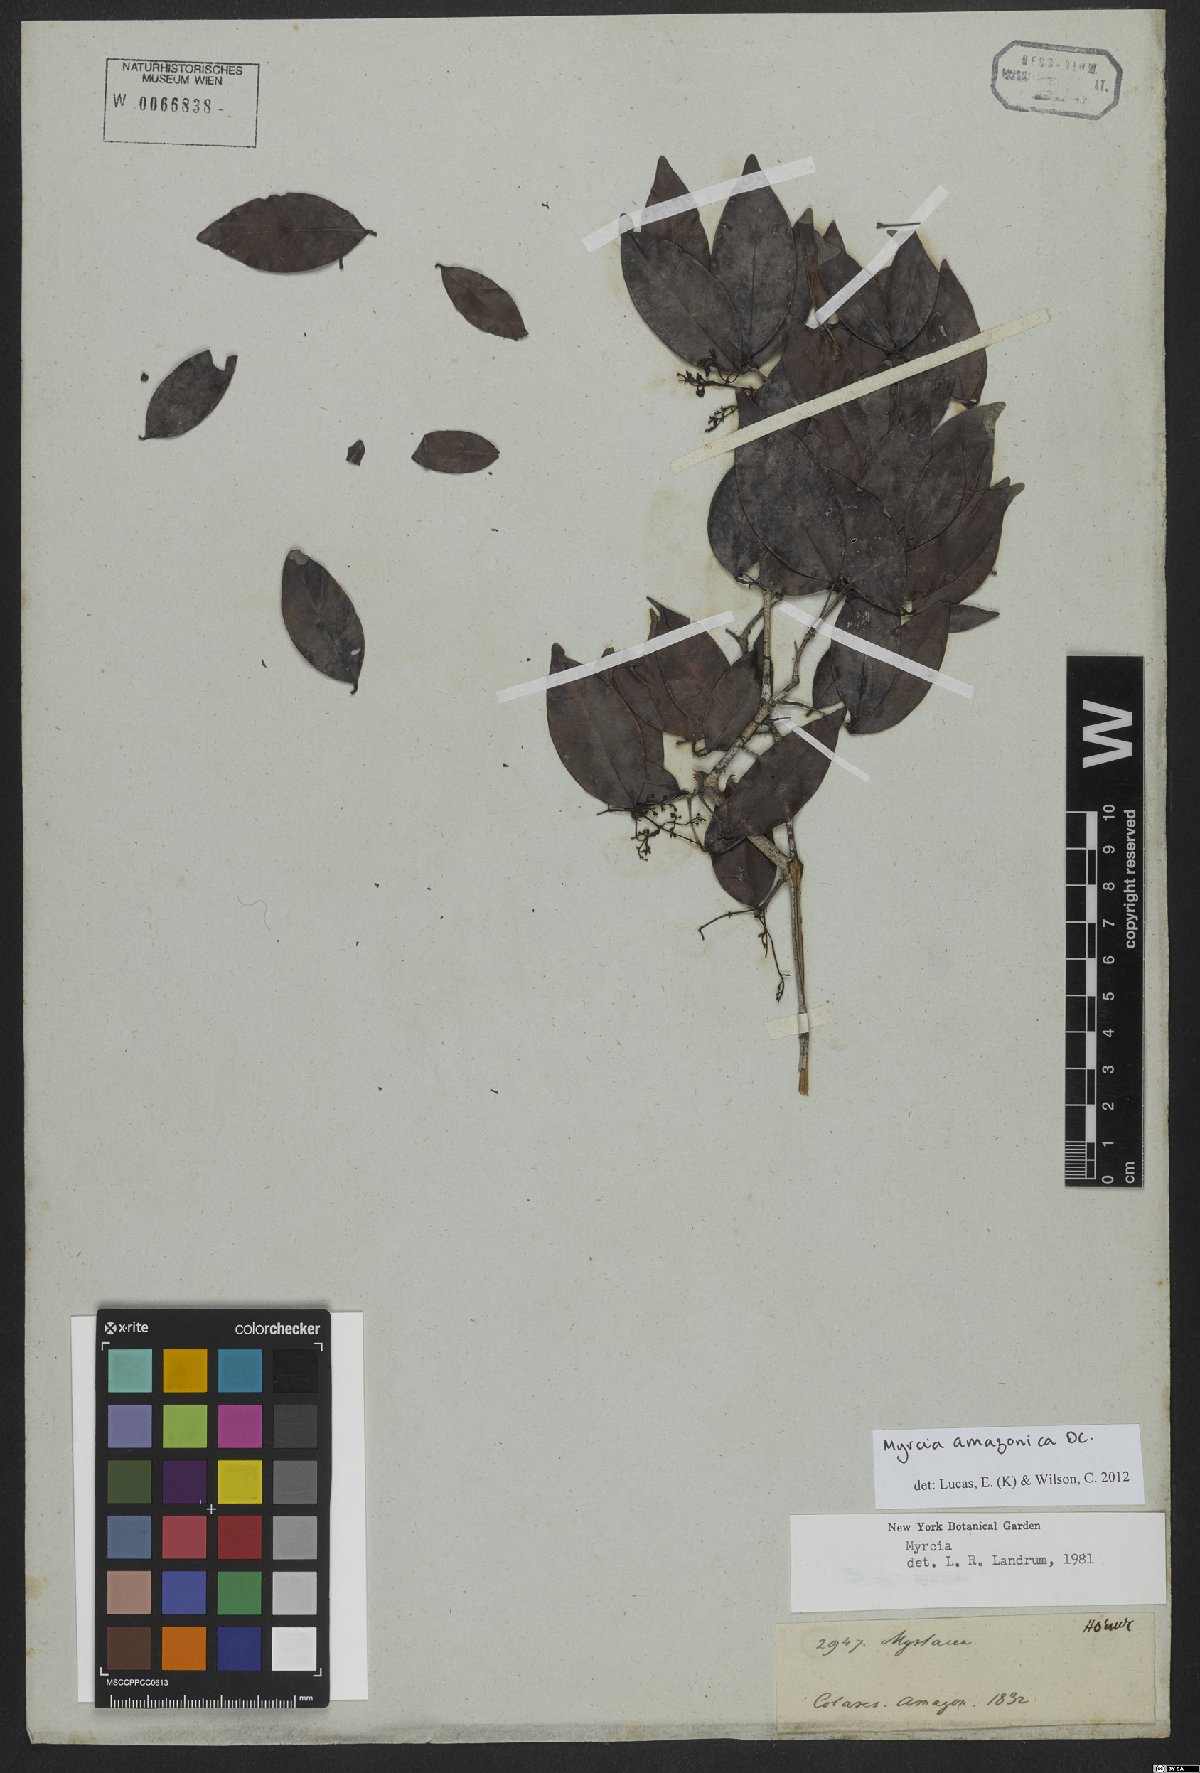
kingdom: Plantae
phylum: Tracheophyta
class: Magnoliopsida
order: Myrtales
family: Myrtaceae
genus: Myrcia
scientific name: Myrcia amazonica
